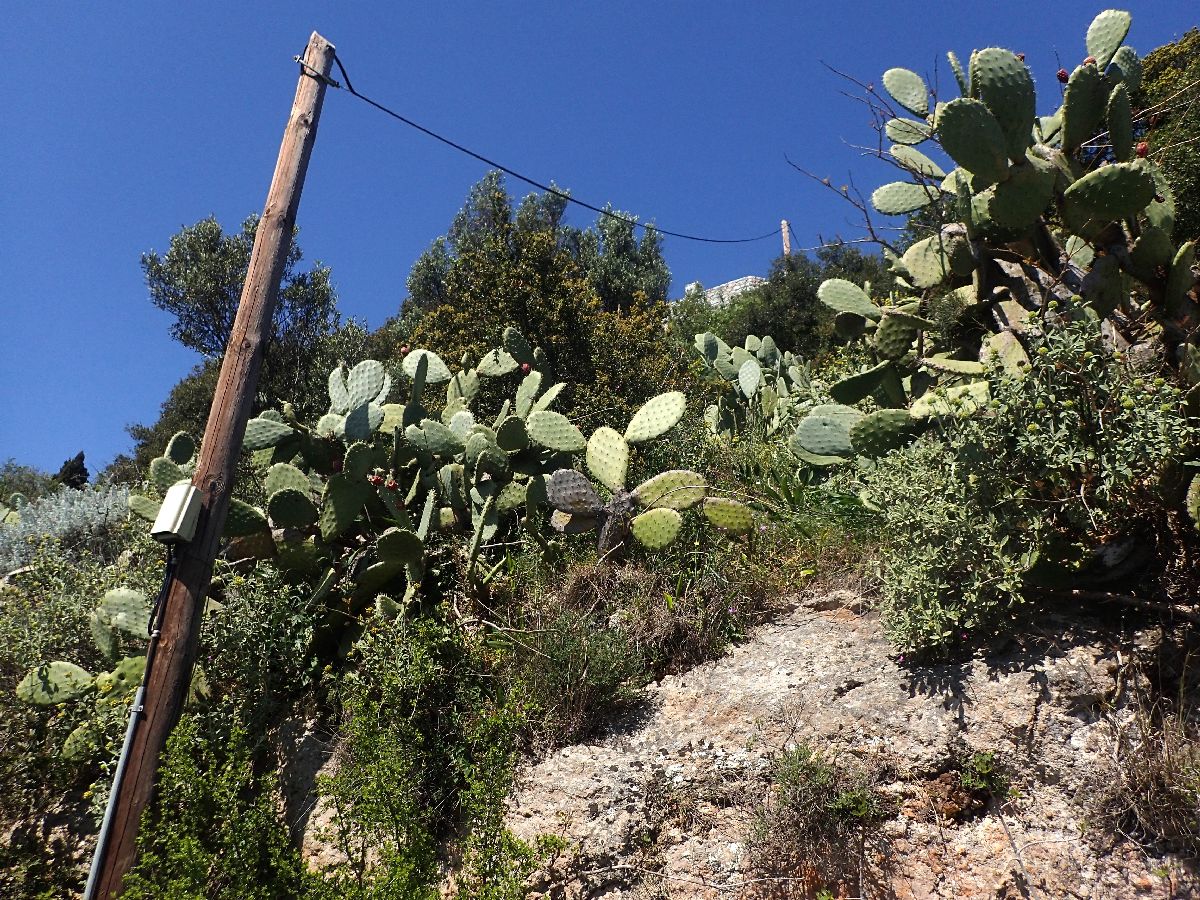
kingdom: Plantae
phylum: Tracheophyta
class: Magnoliopsida
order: Caryophyllales
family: Cactaceae
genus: Opuntia
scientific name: Opuntia ficus-indica
